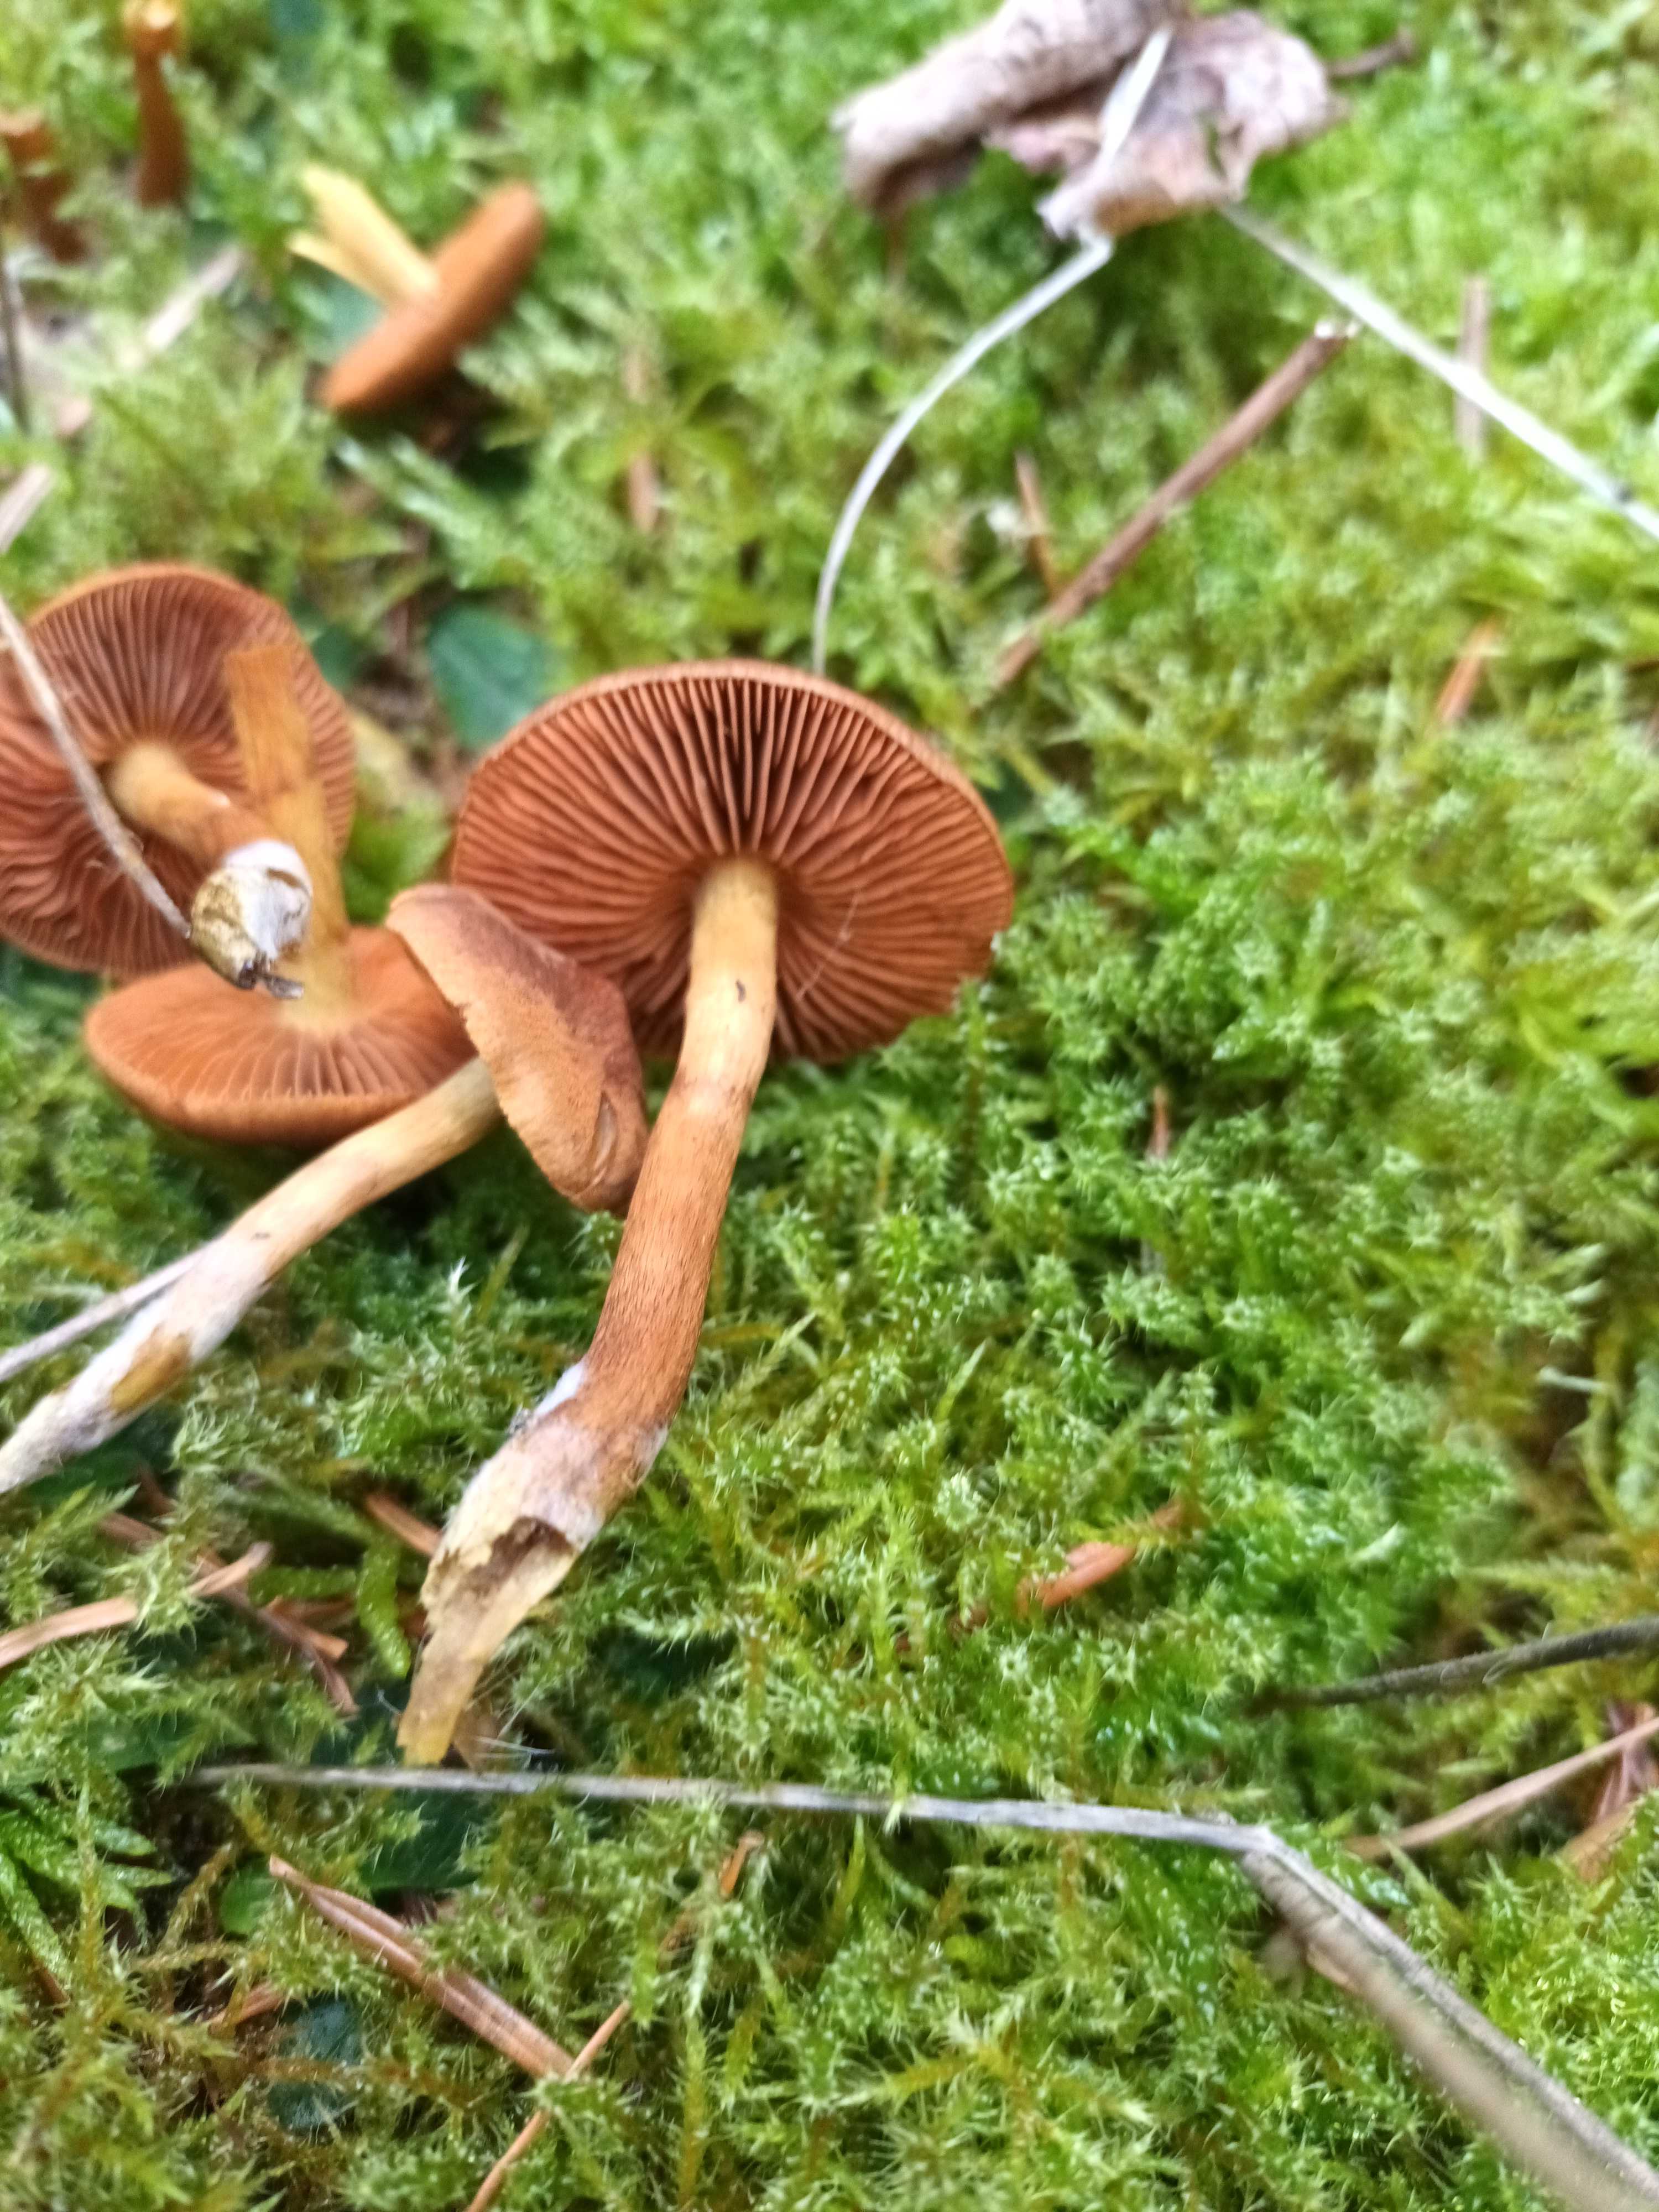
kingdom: Fungi
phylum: Basidiomycota
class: Agaricomycetes
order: Agaricales
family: Cortinariaceae
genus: Cortinarius
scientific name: Cortinarius cinnamomeus
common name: kanel-slørhat
